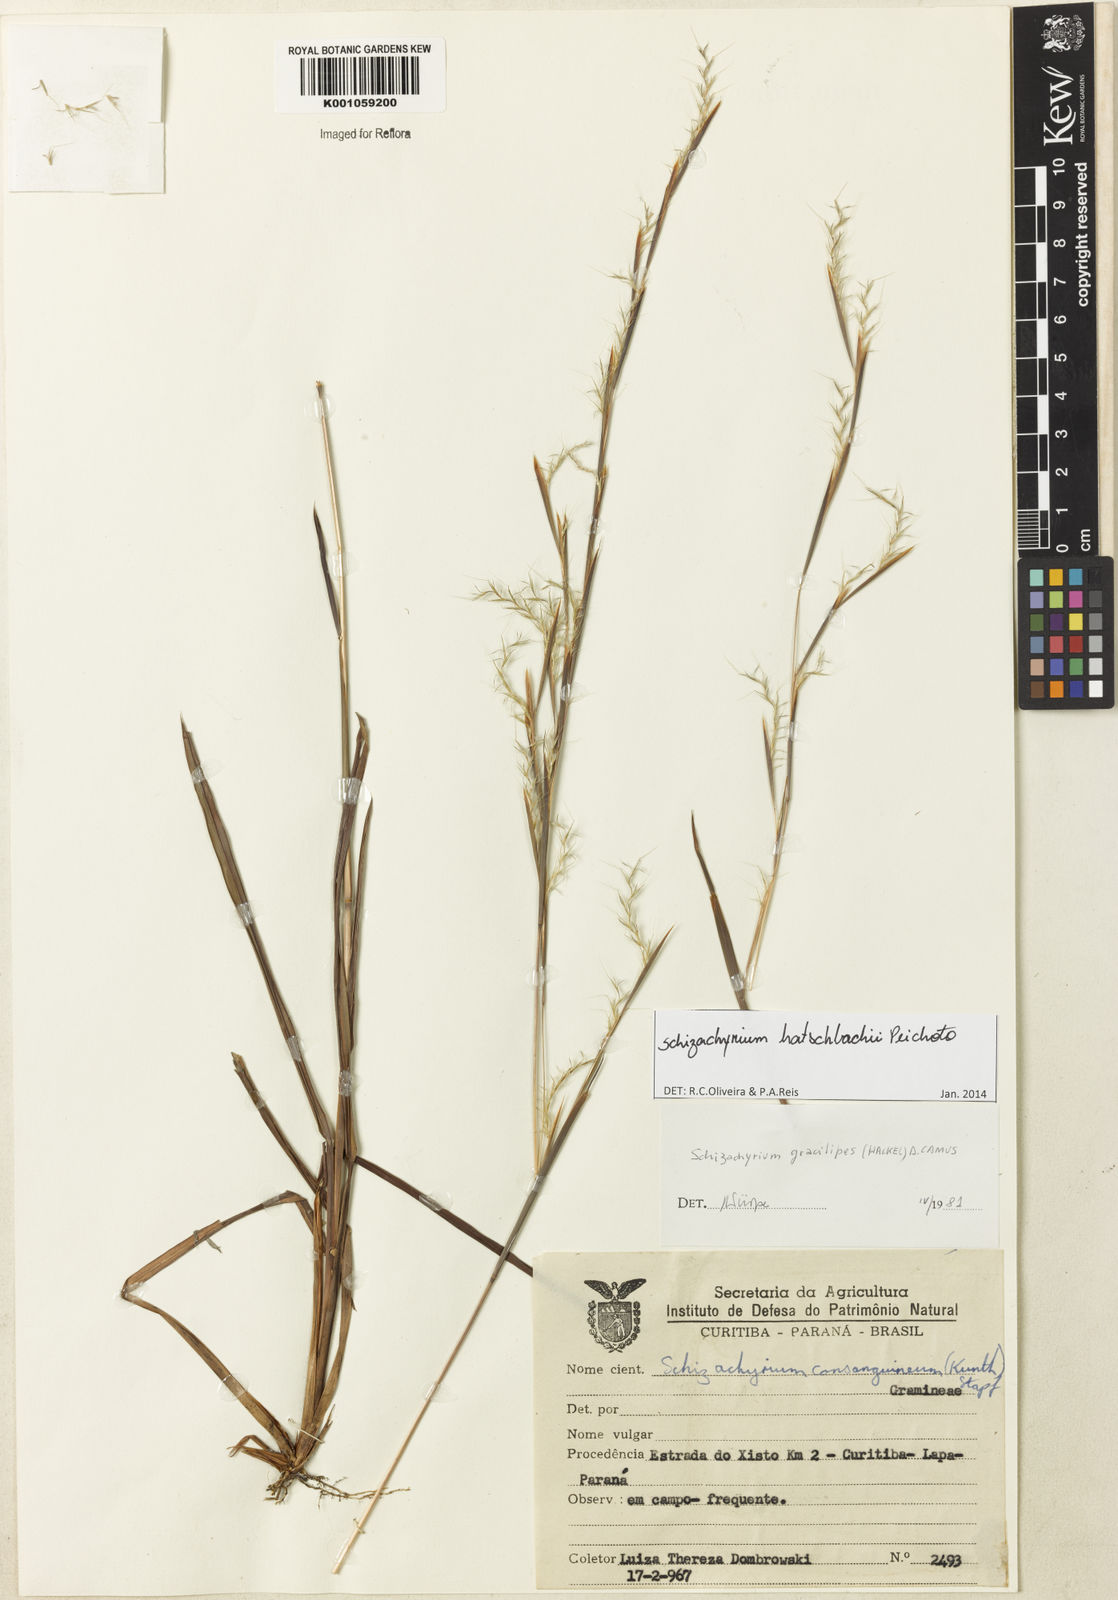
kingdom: Plantae
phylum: Tracheophyta
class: Liliopsida
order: Poales
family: Poaceae
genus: Schizachyrium
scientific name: Schizachyrium hatschbachii
